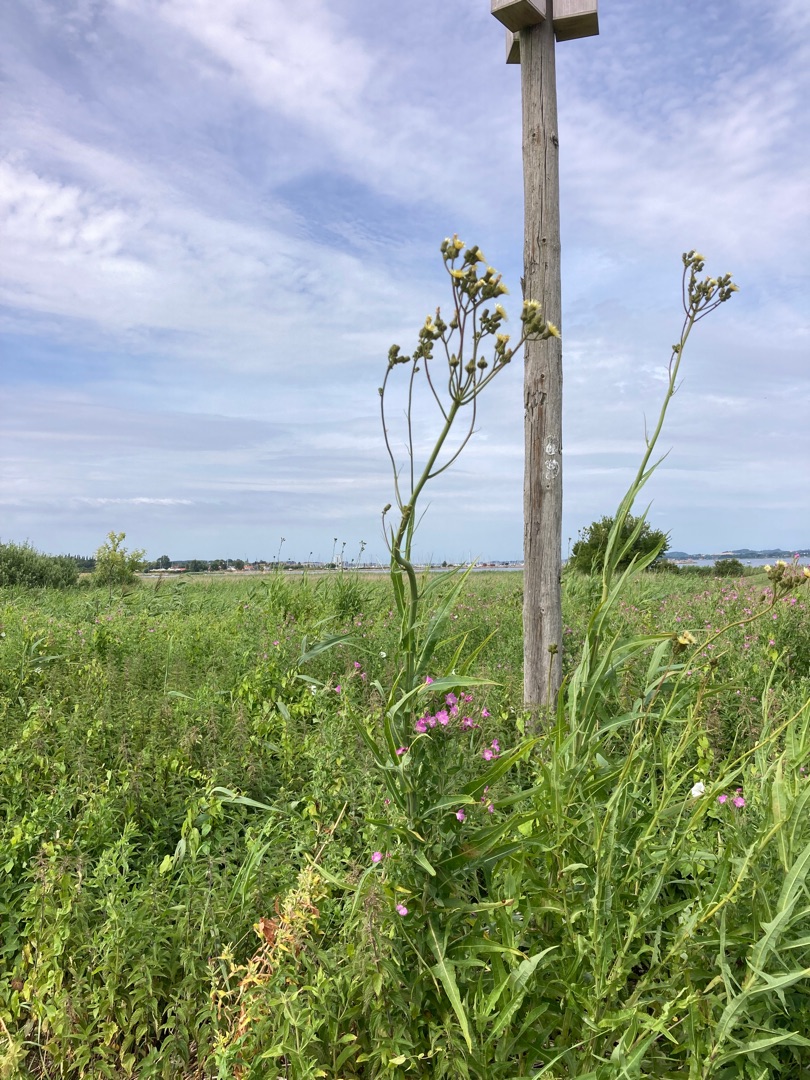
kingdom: Plantae
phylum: Tracheophyta
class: Magnoliopsida
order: Asterales
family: Asteraceae
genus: Sonchus
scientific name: Sonchus palustris
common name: Kær-svinemælk
